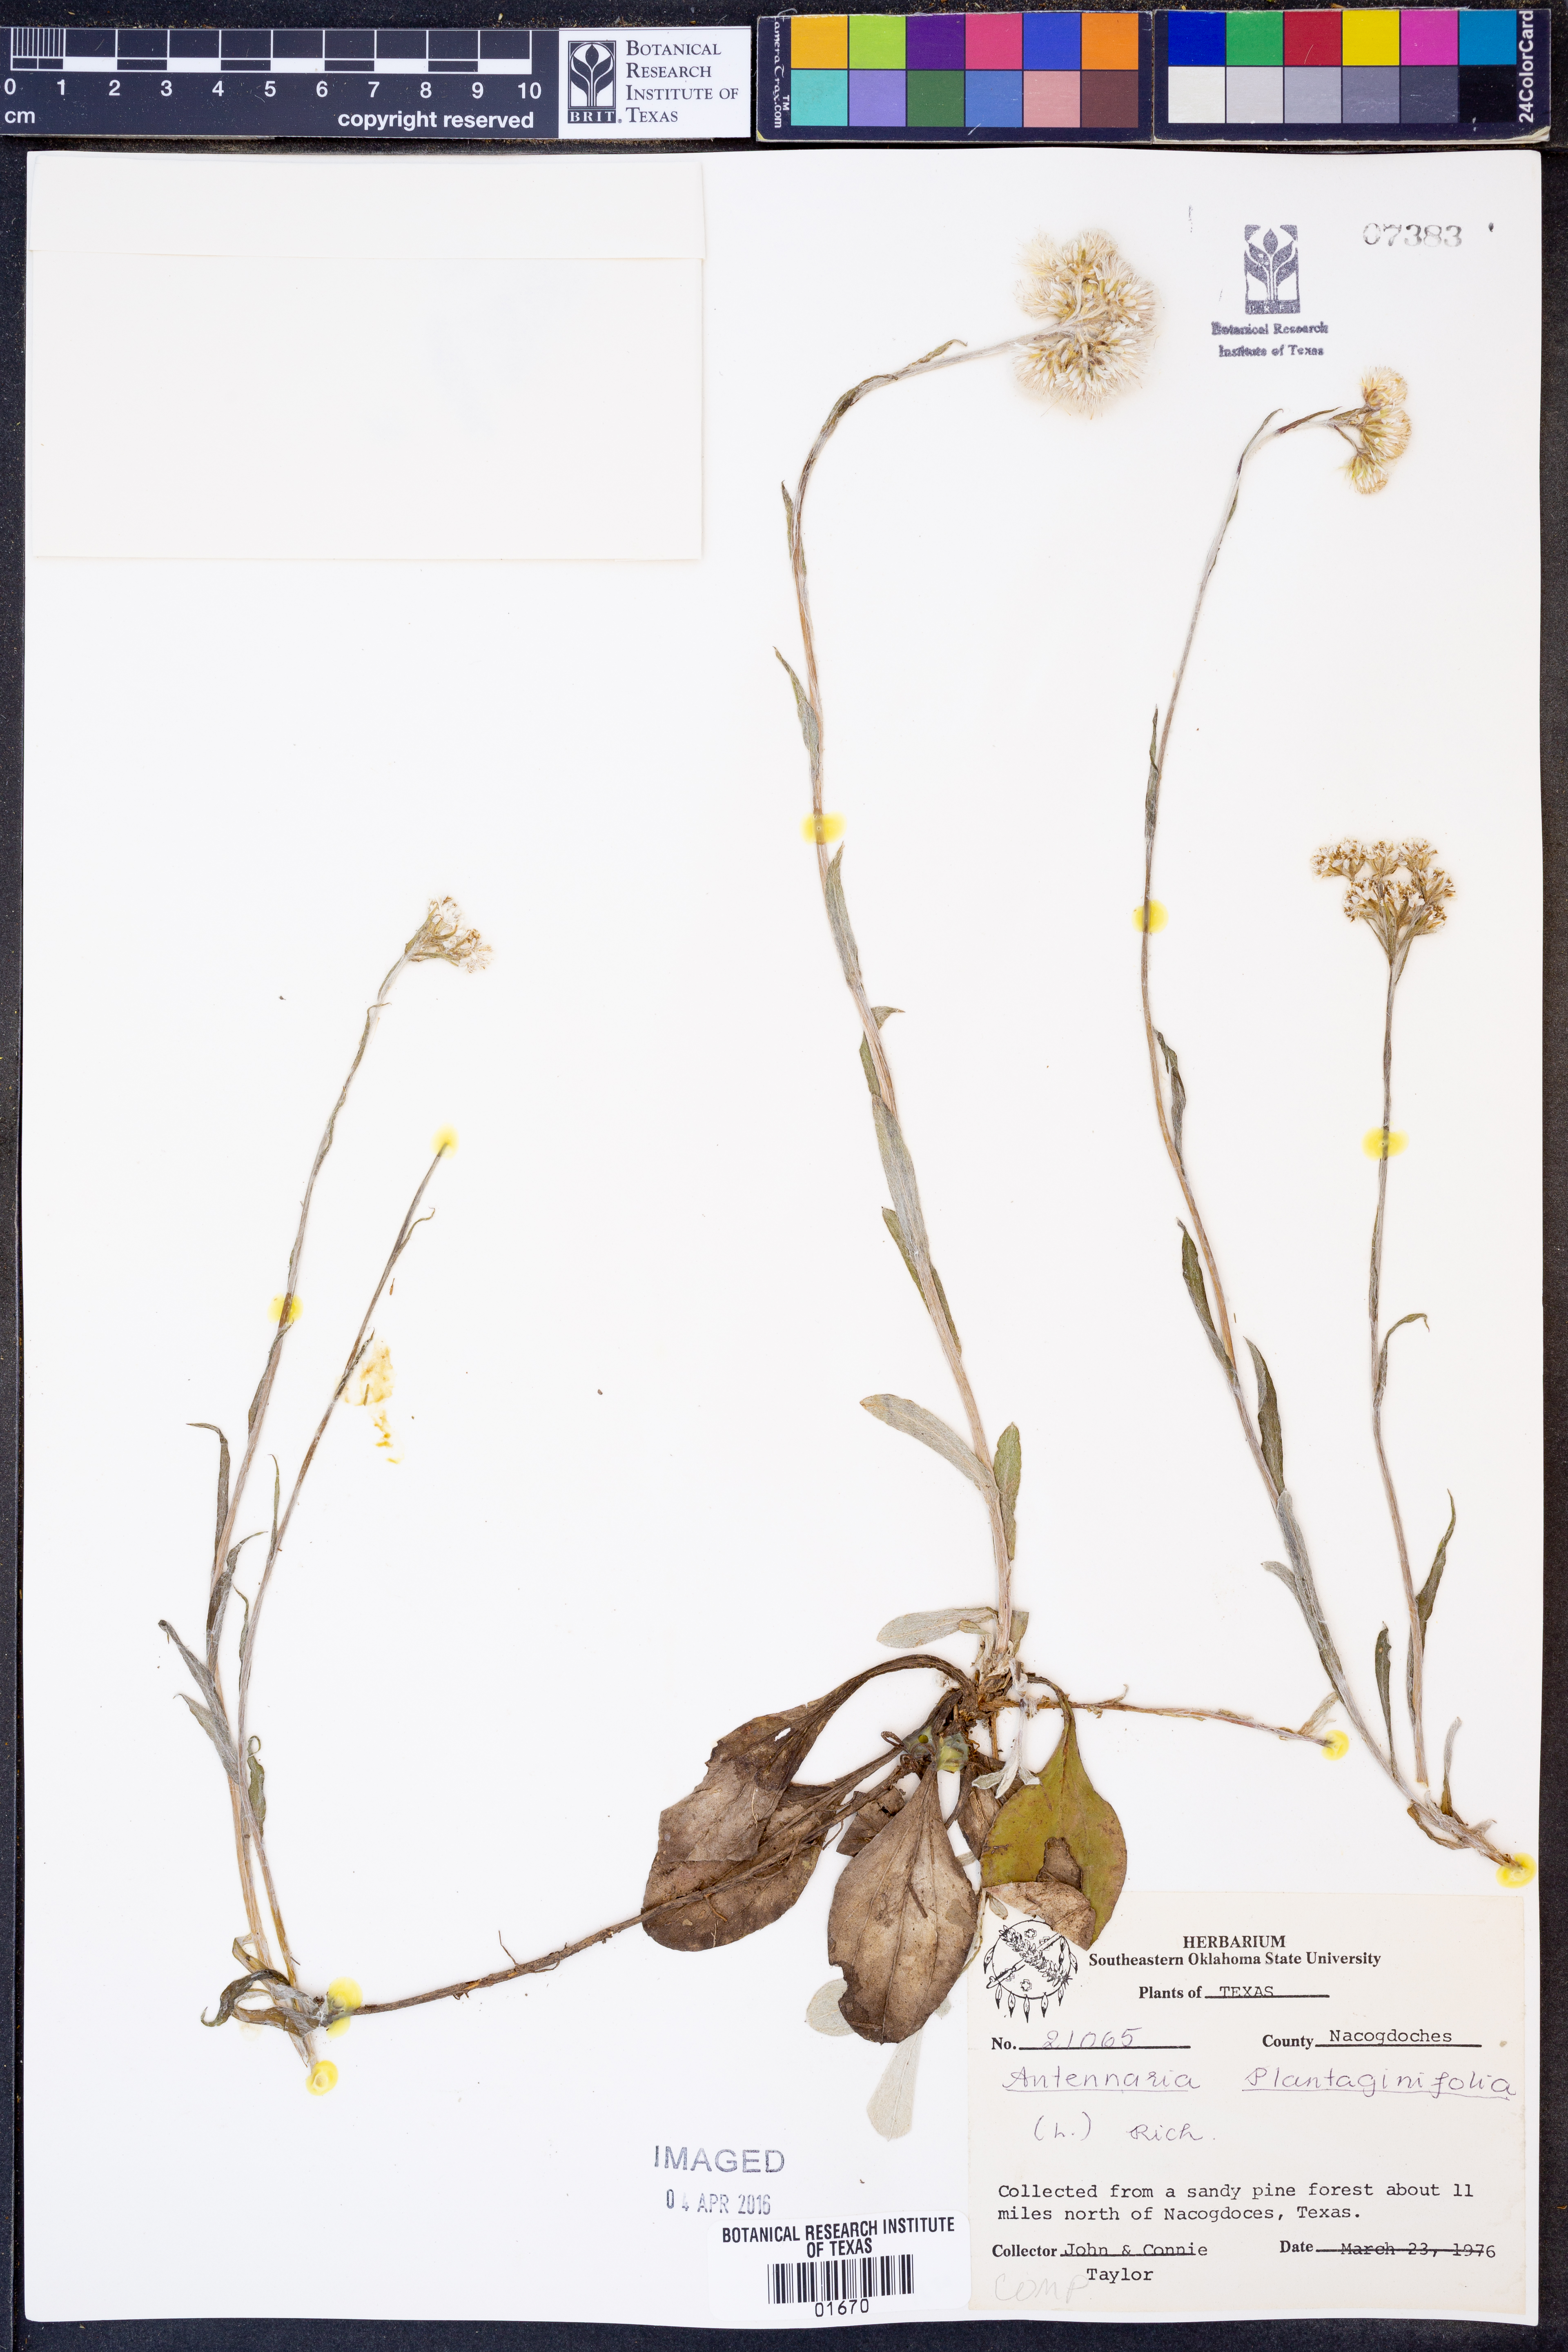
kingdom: Plantae
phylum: Tracheophyta
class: Magnoliopsida
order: Asterales
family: Asteraceae
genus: Antennaria
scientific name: Antennaria plantaginifolia
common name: Plantain-leaved pussytoes
